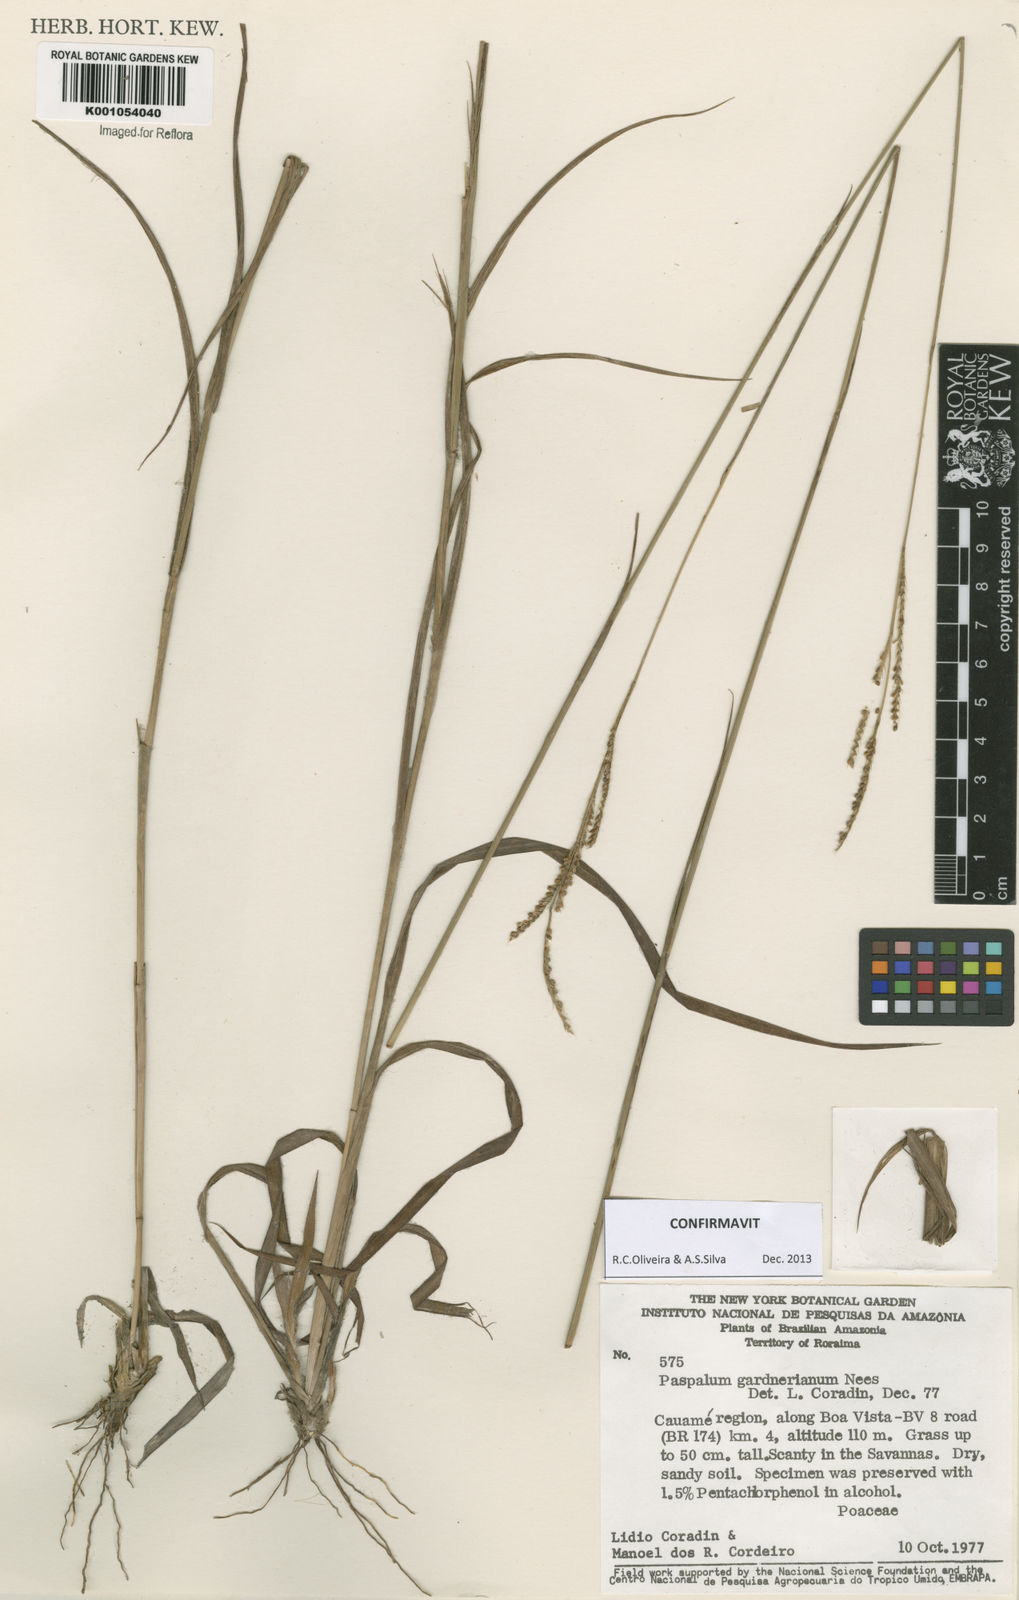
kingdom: Plantae
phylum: Tracheophyta
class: Liliopsida
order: Poales
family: Poaceae
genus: Paspalum
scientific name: Paspalum gardnerianum
